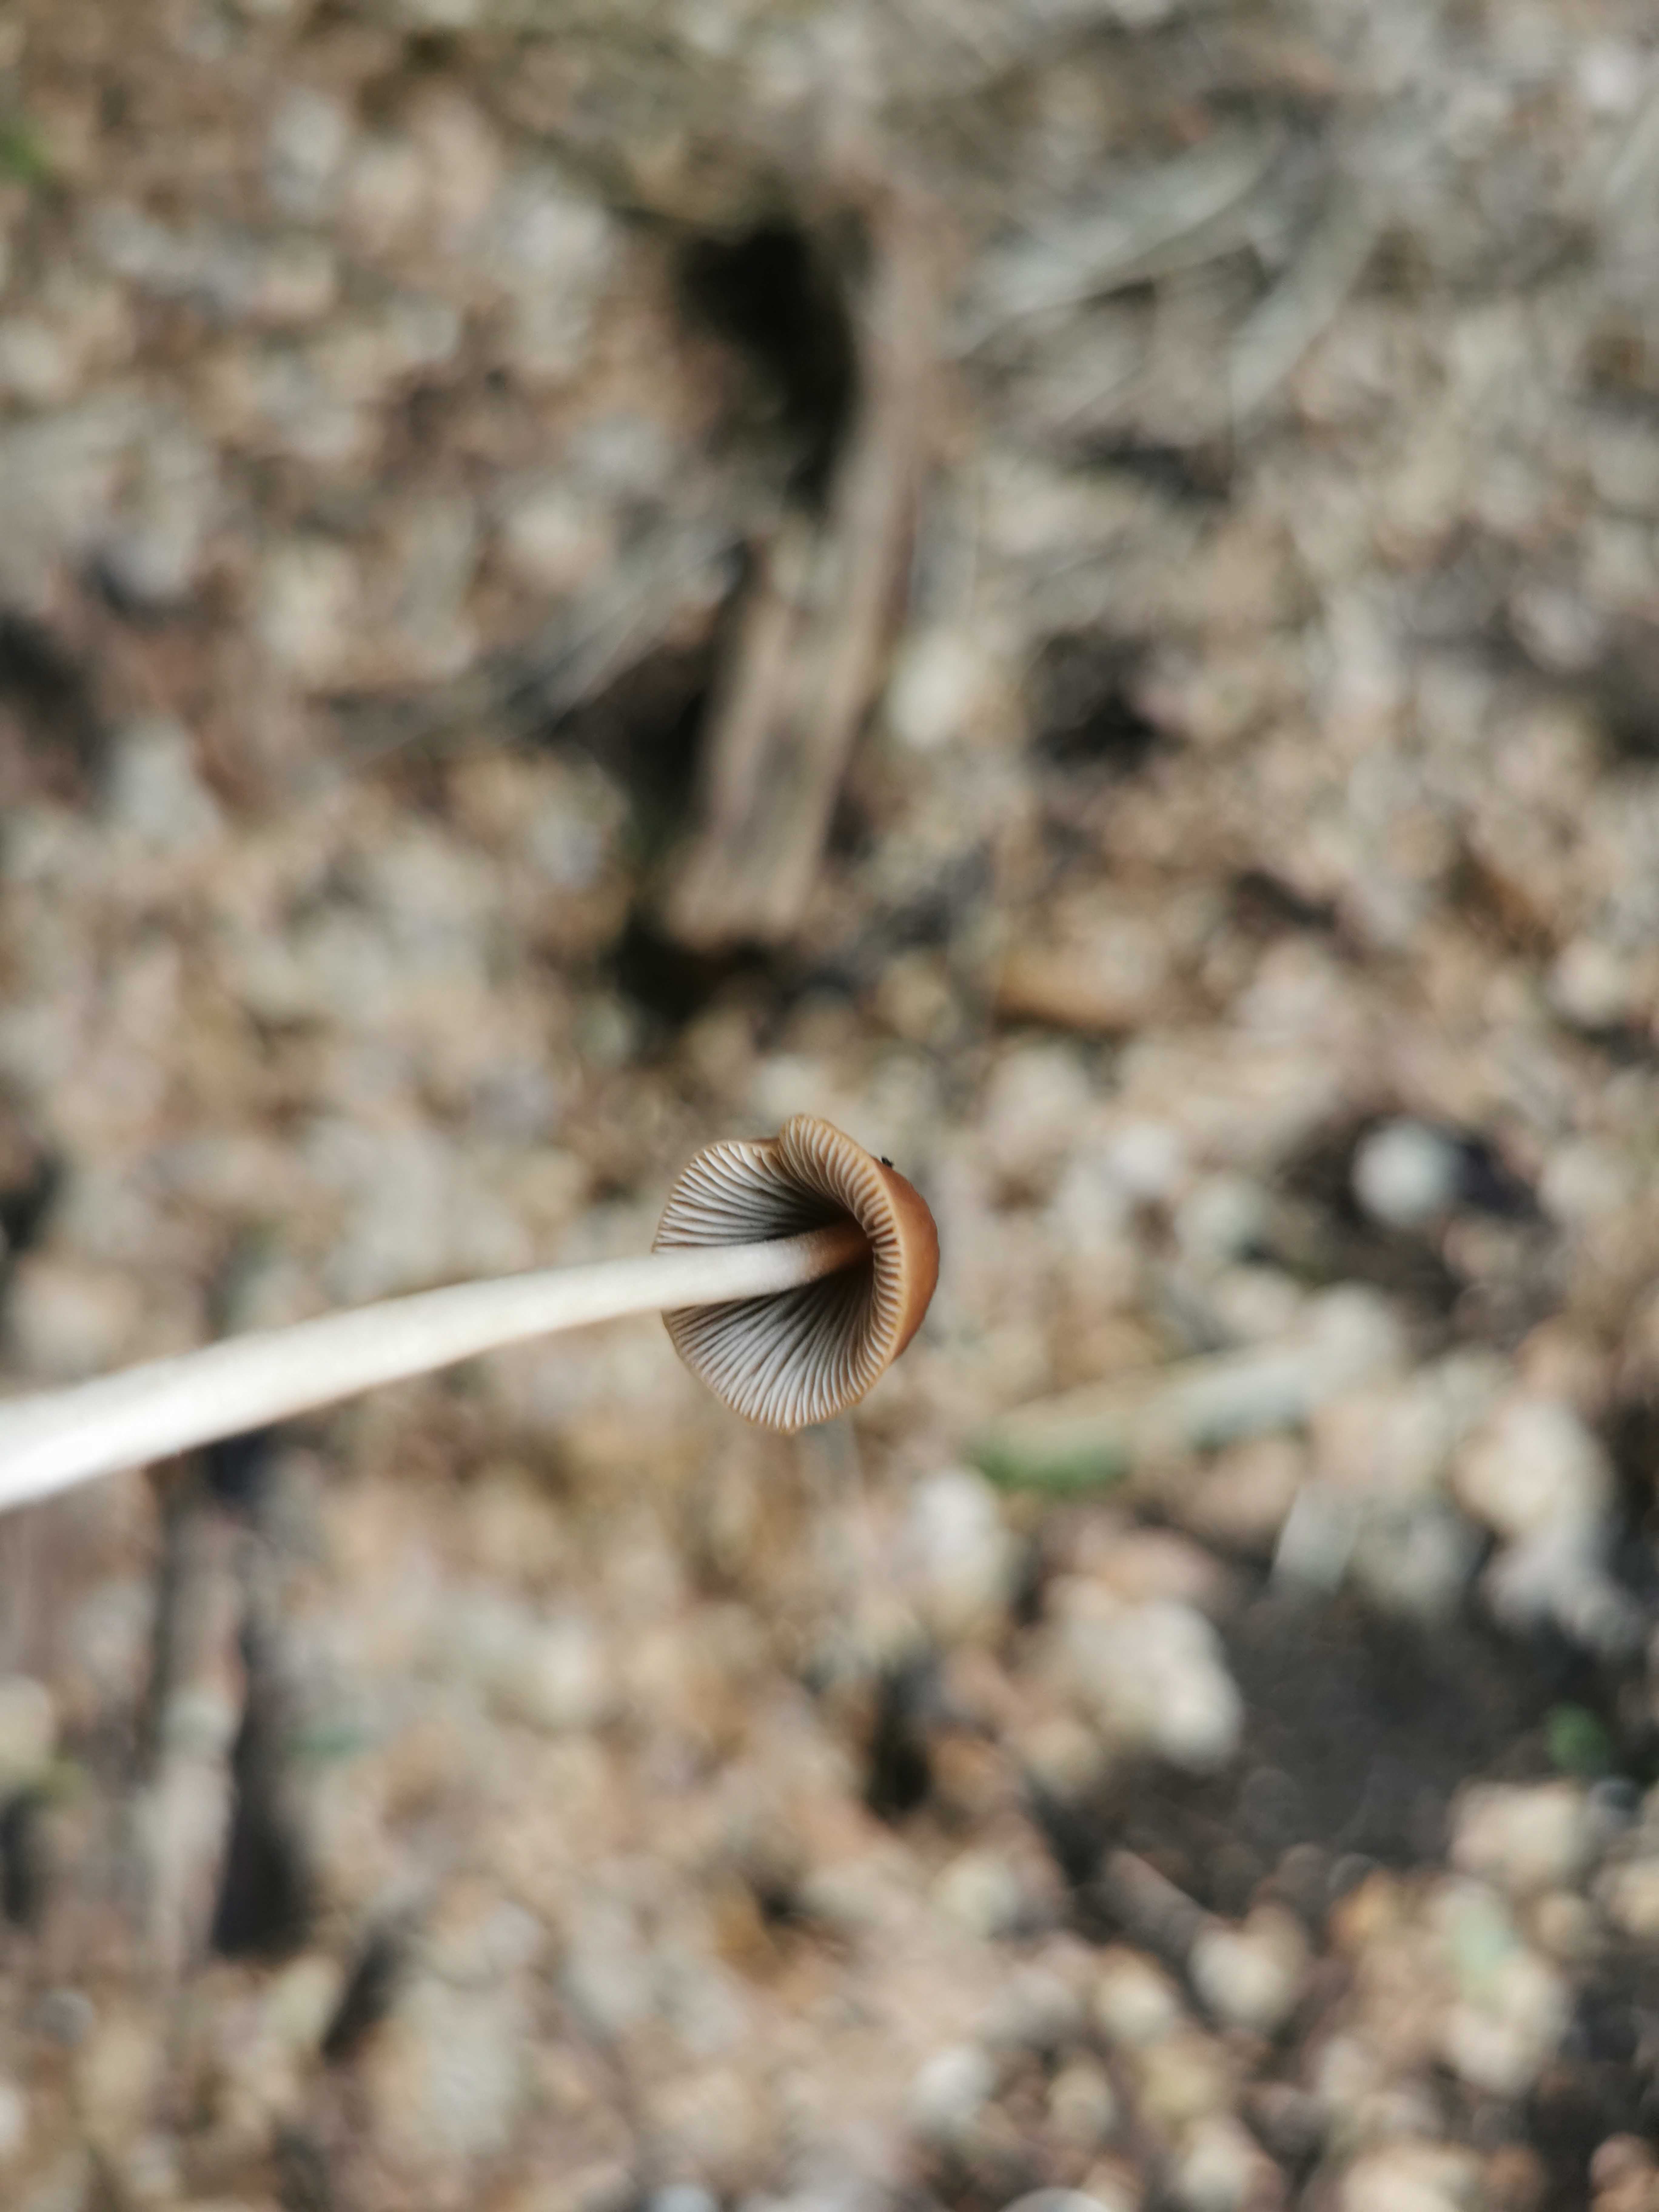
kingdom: Fungi
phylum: Basidiomycota
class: Agaricomycetes
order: Agaricales
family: Psathyrellaceae
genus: Parasola
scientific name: Parasola conopilea
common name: kegle-hjulhat
